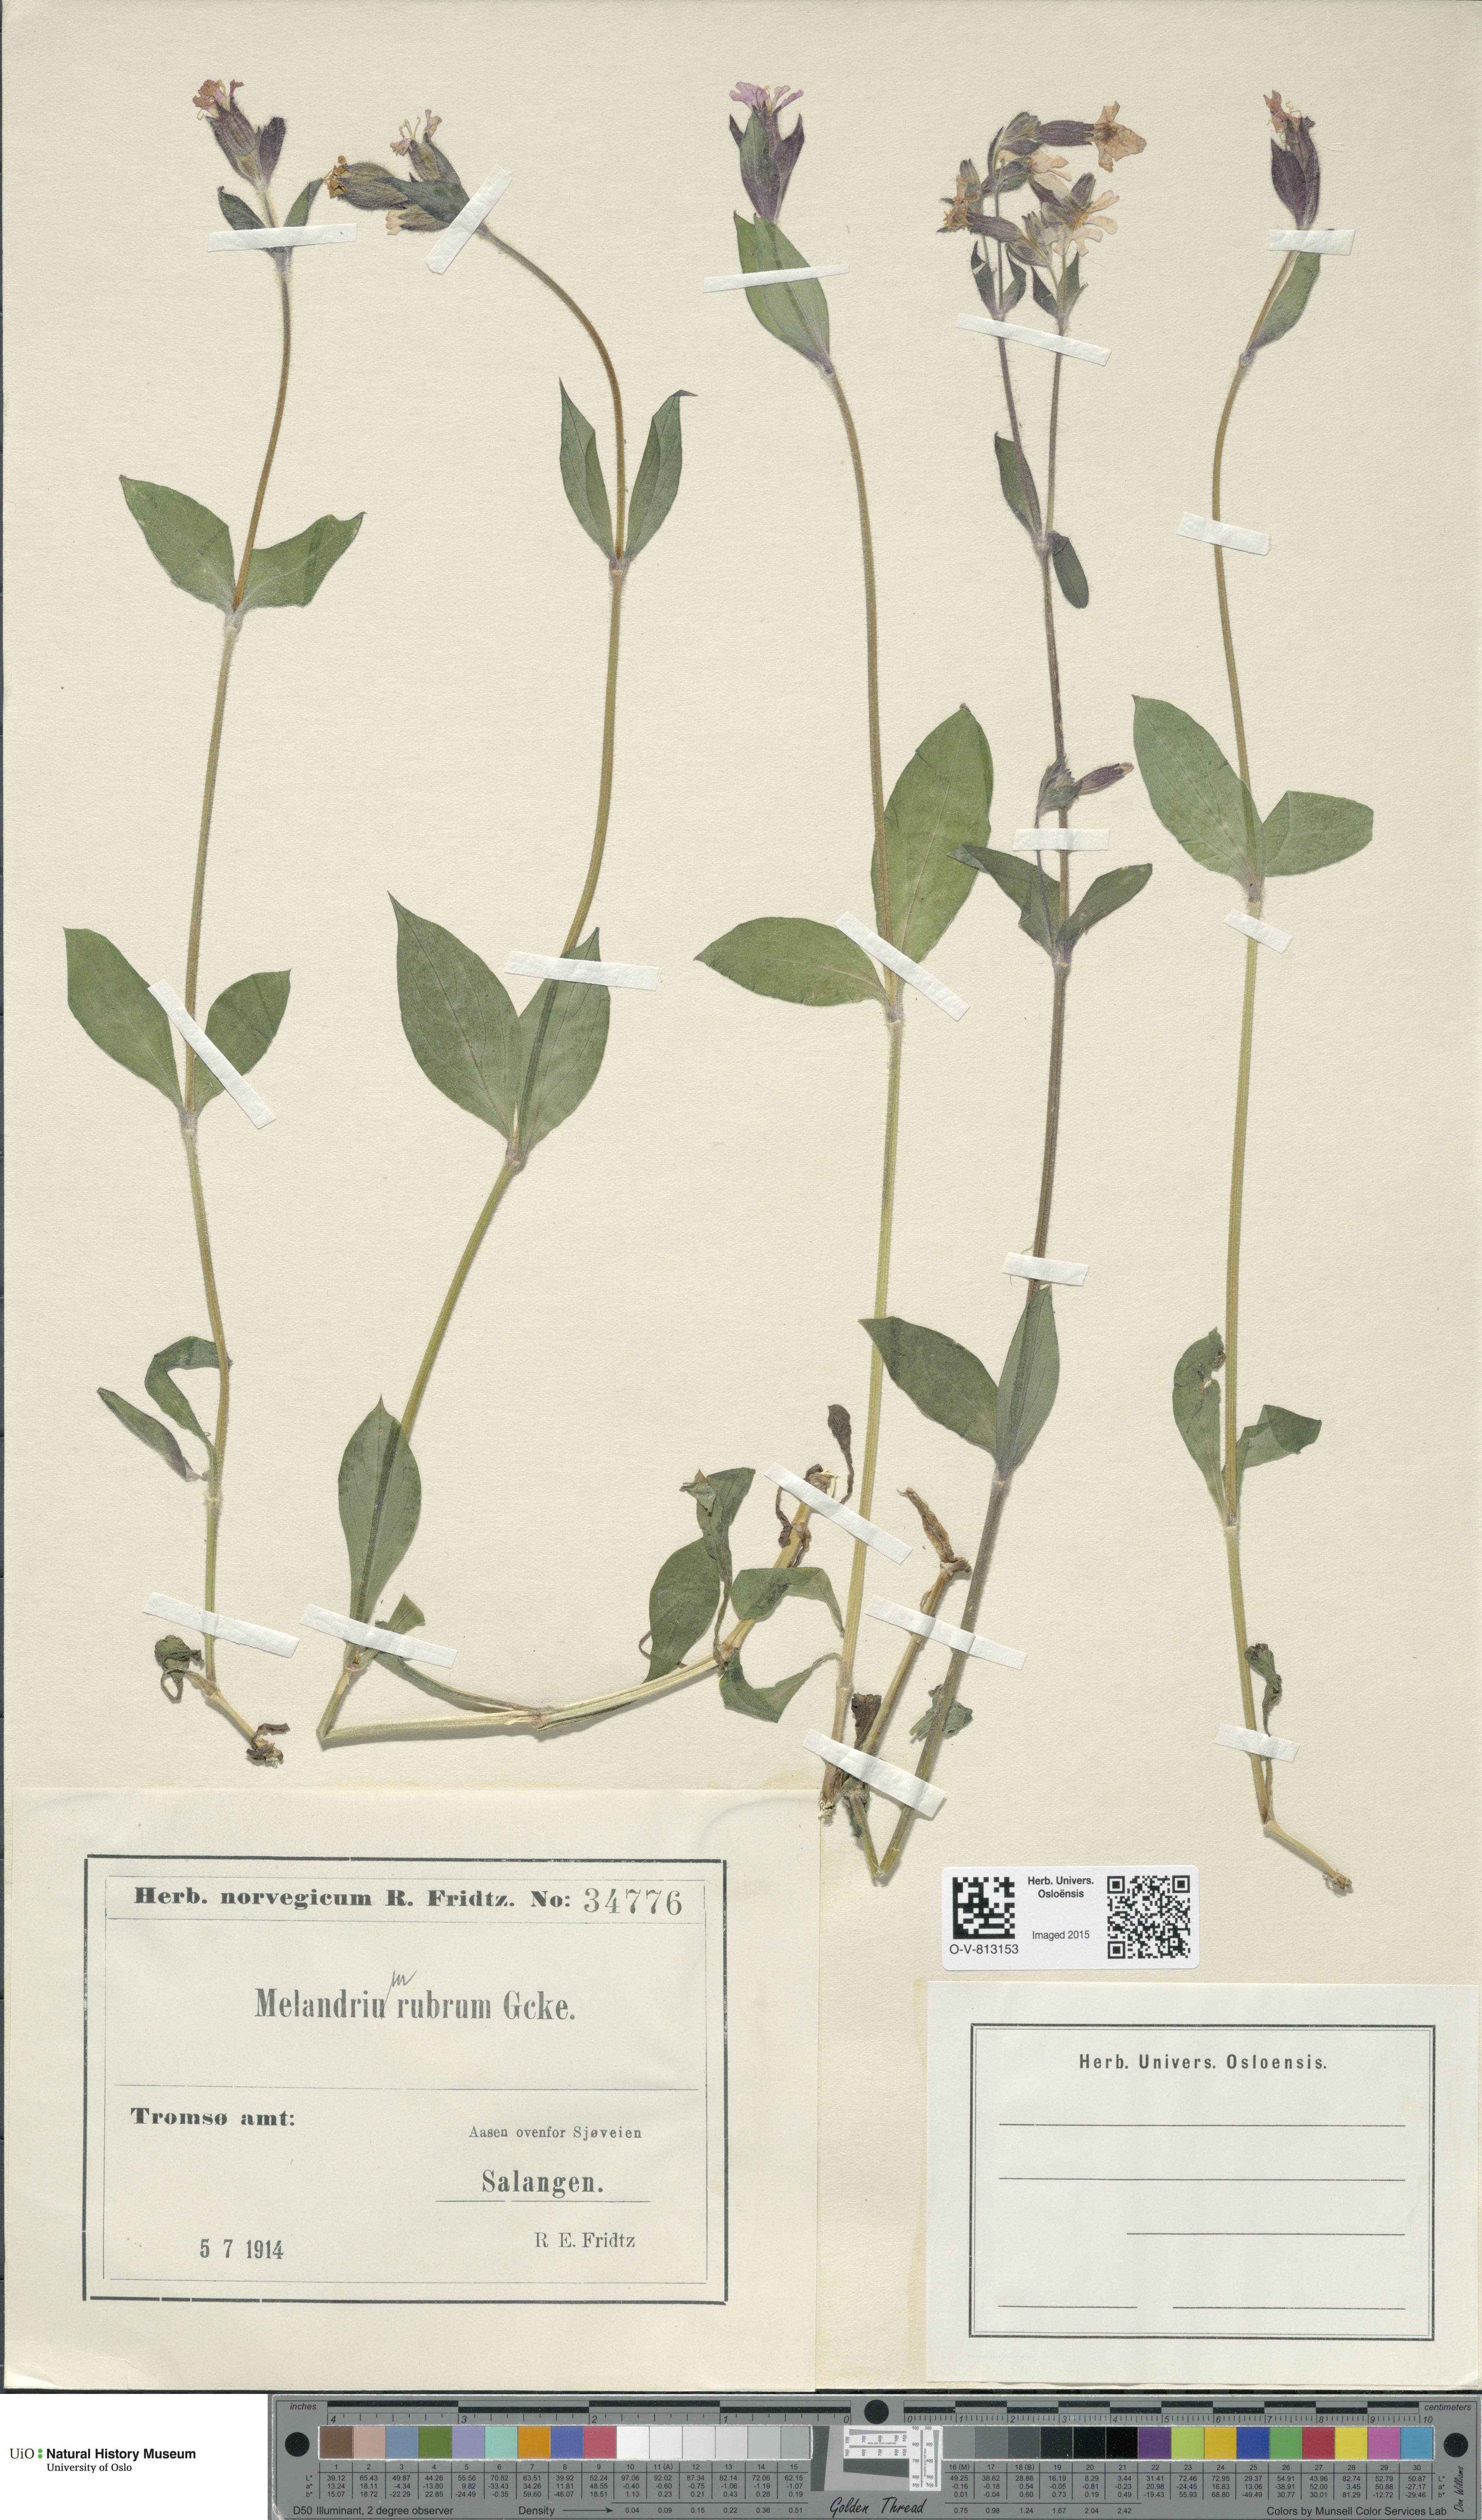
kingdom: Plantae
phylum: Tracheophyta
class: Magnoliopsida
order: Caryophyllales
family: Caryophyllaceae
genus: Silene
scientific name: Silene dioica
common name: Red campion
